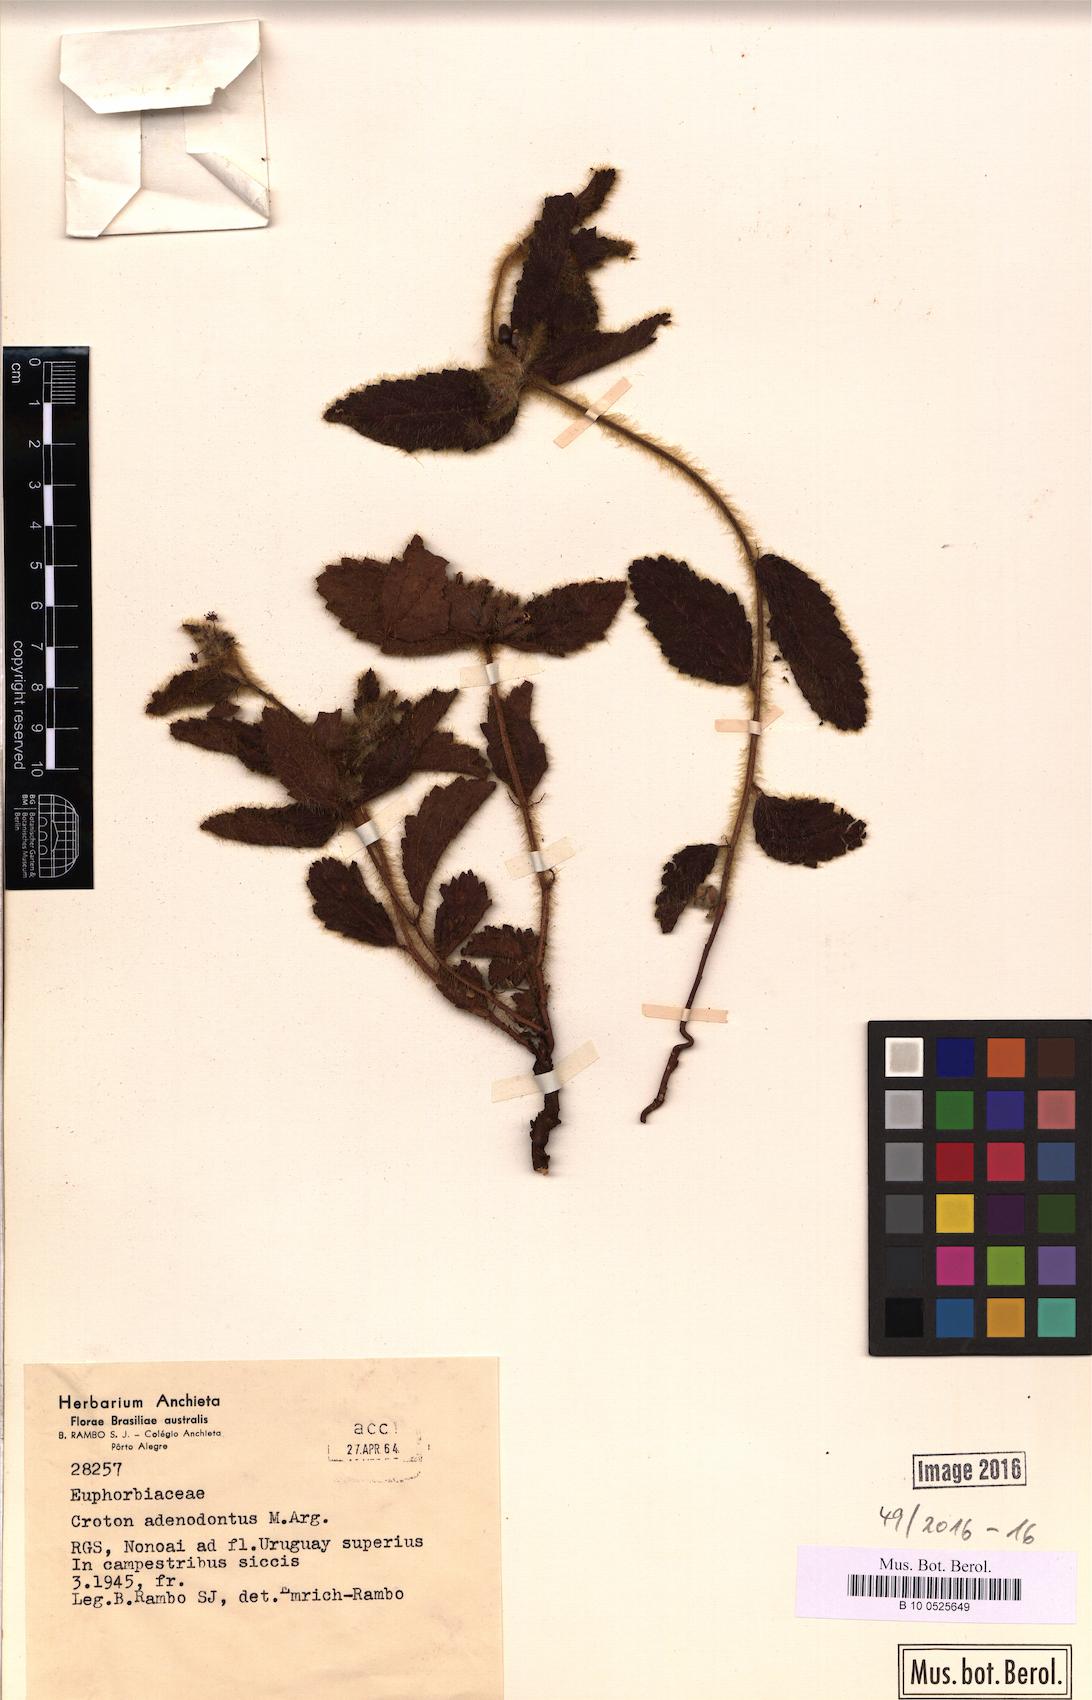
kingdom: Plantae
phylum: Tracheophyta
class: Magnoliopsida
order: Malpighiales
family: Euphorbiaceae
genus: Croton
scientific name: Croton adenodontus
